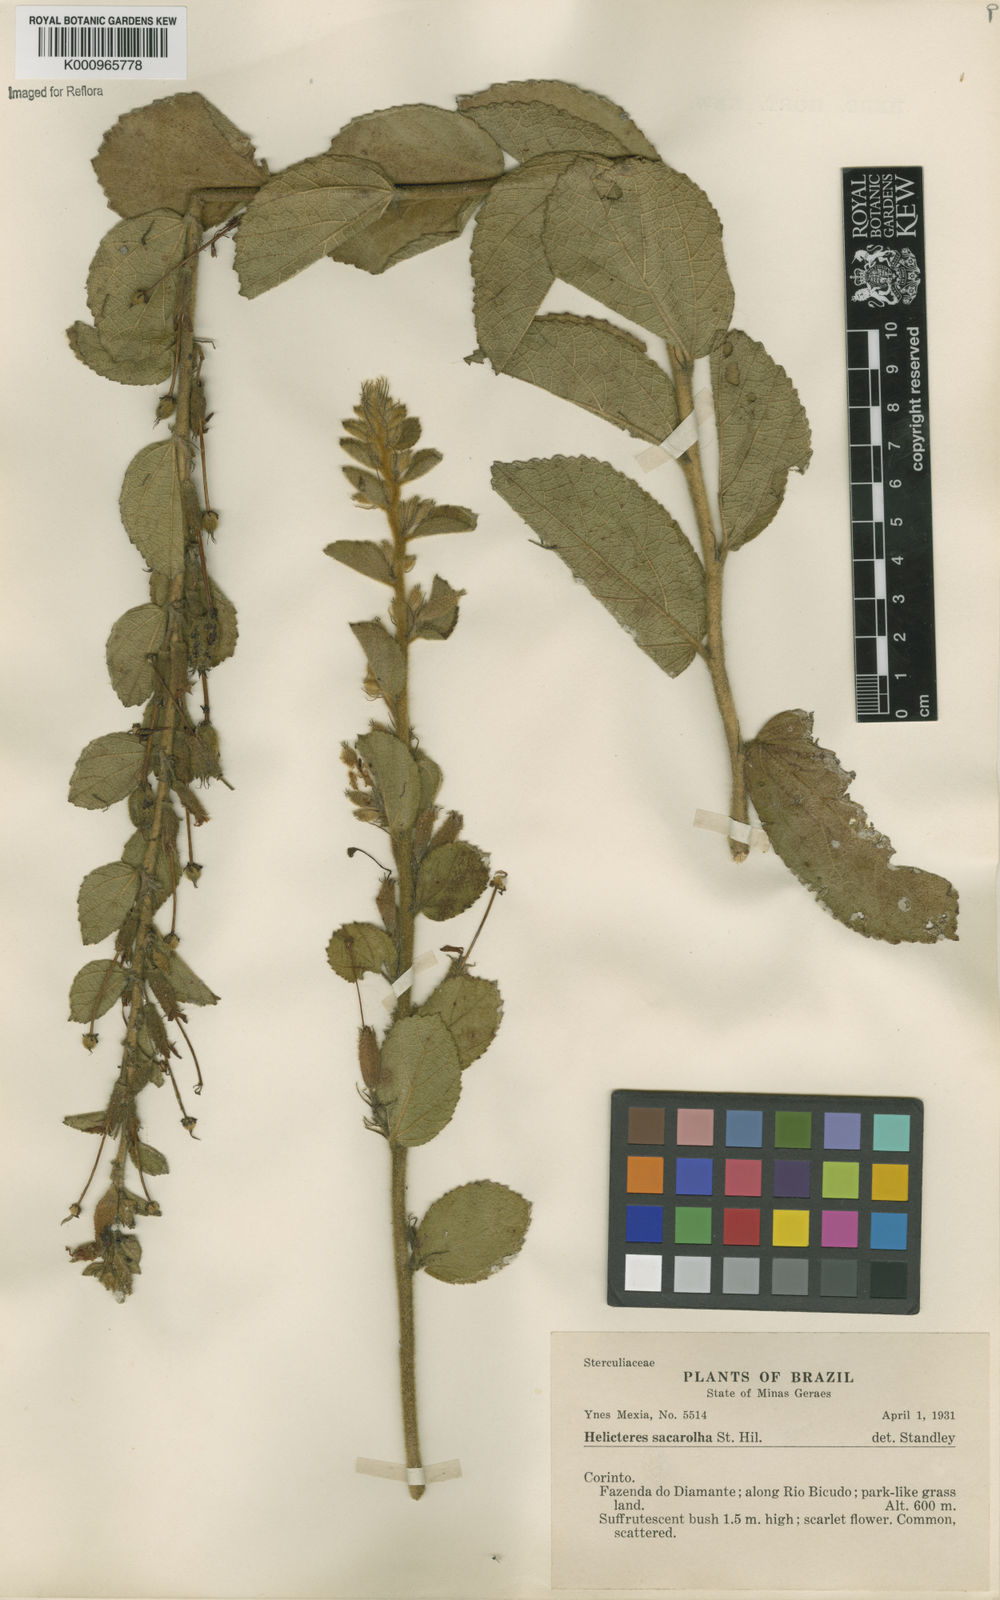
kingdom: Plantae
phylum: Tracheophyta
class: Magnoliopsida
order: Malvales
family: Malvaceae
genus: Helicteres
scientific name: Helicteres
